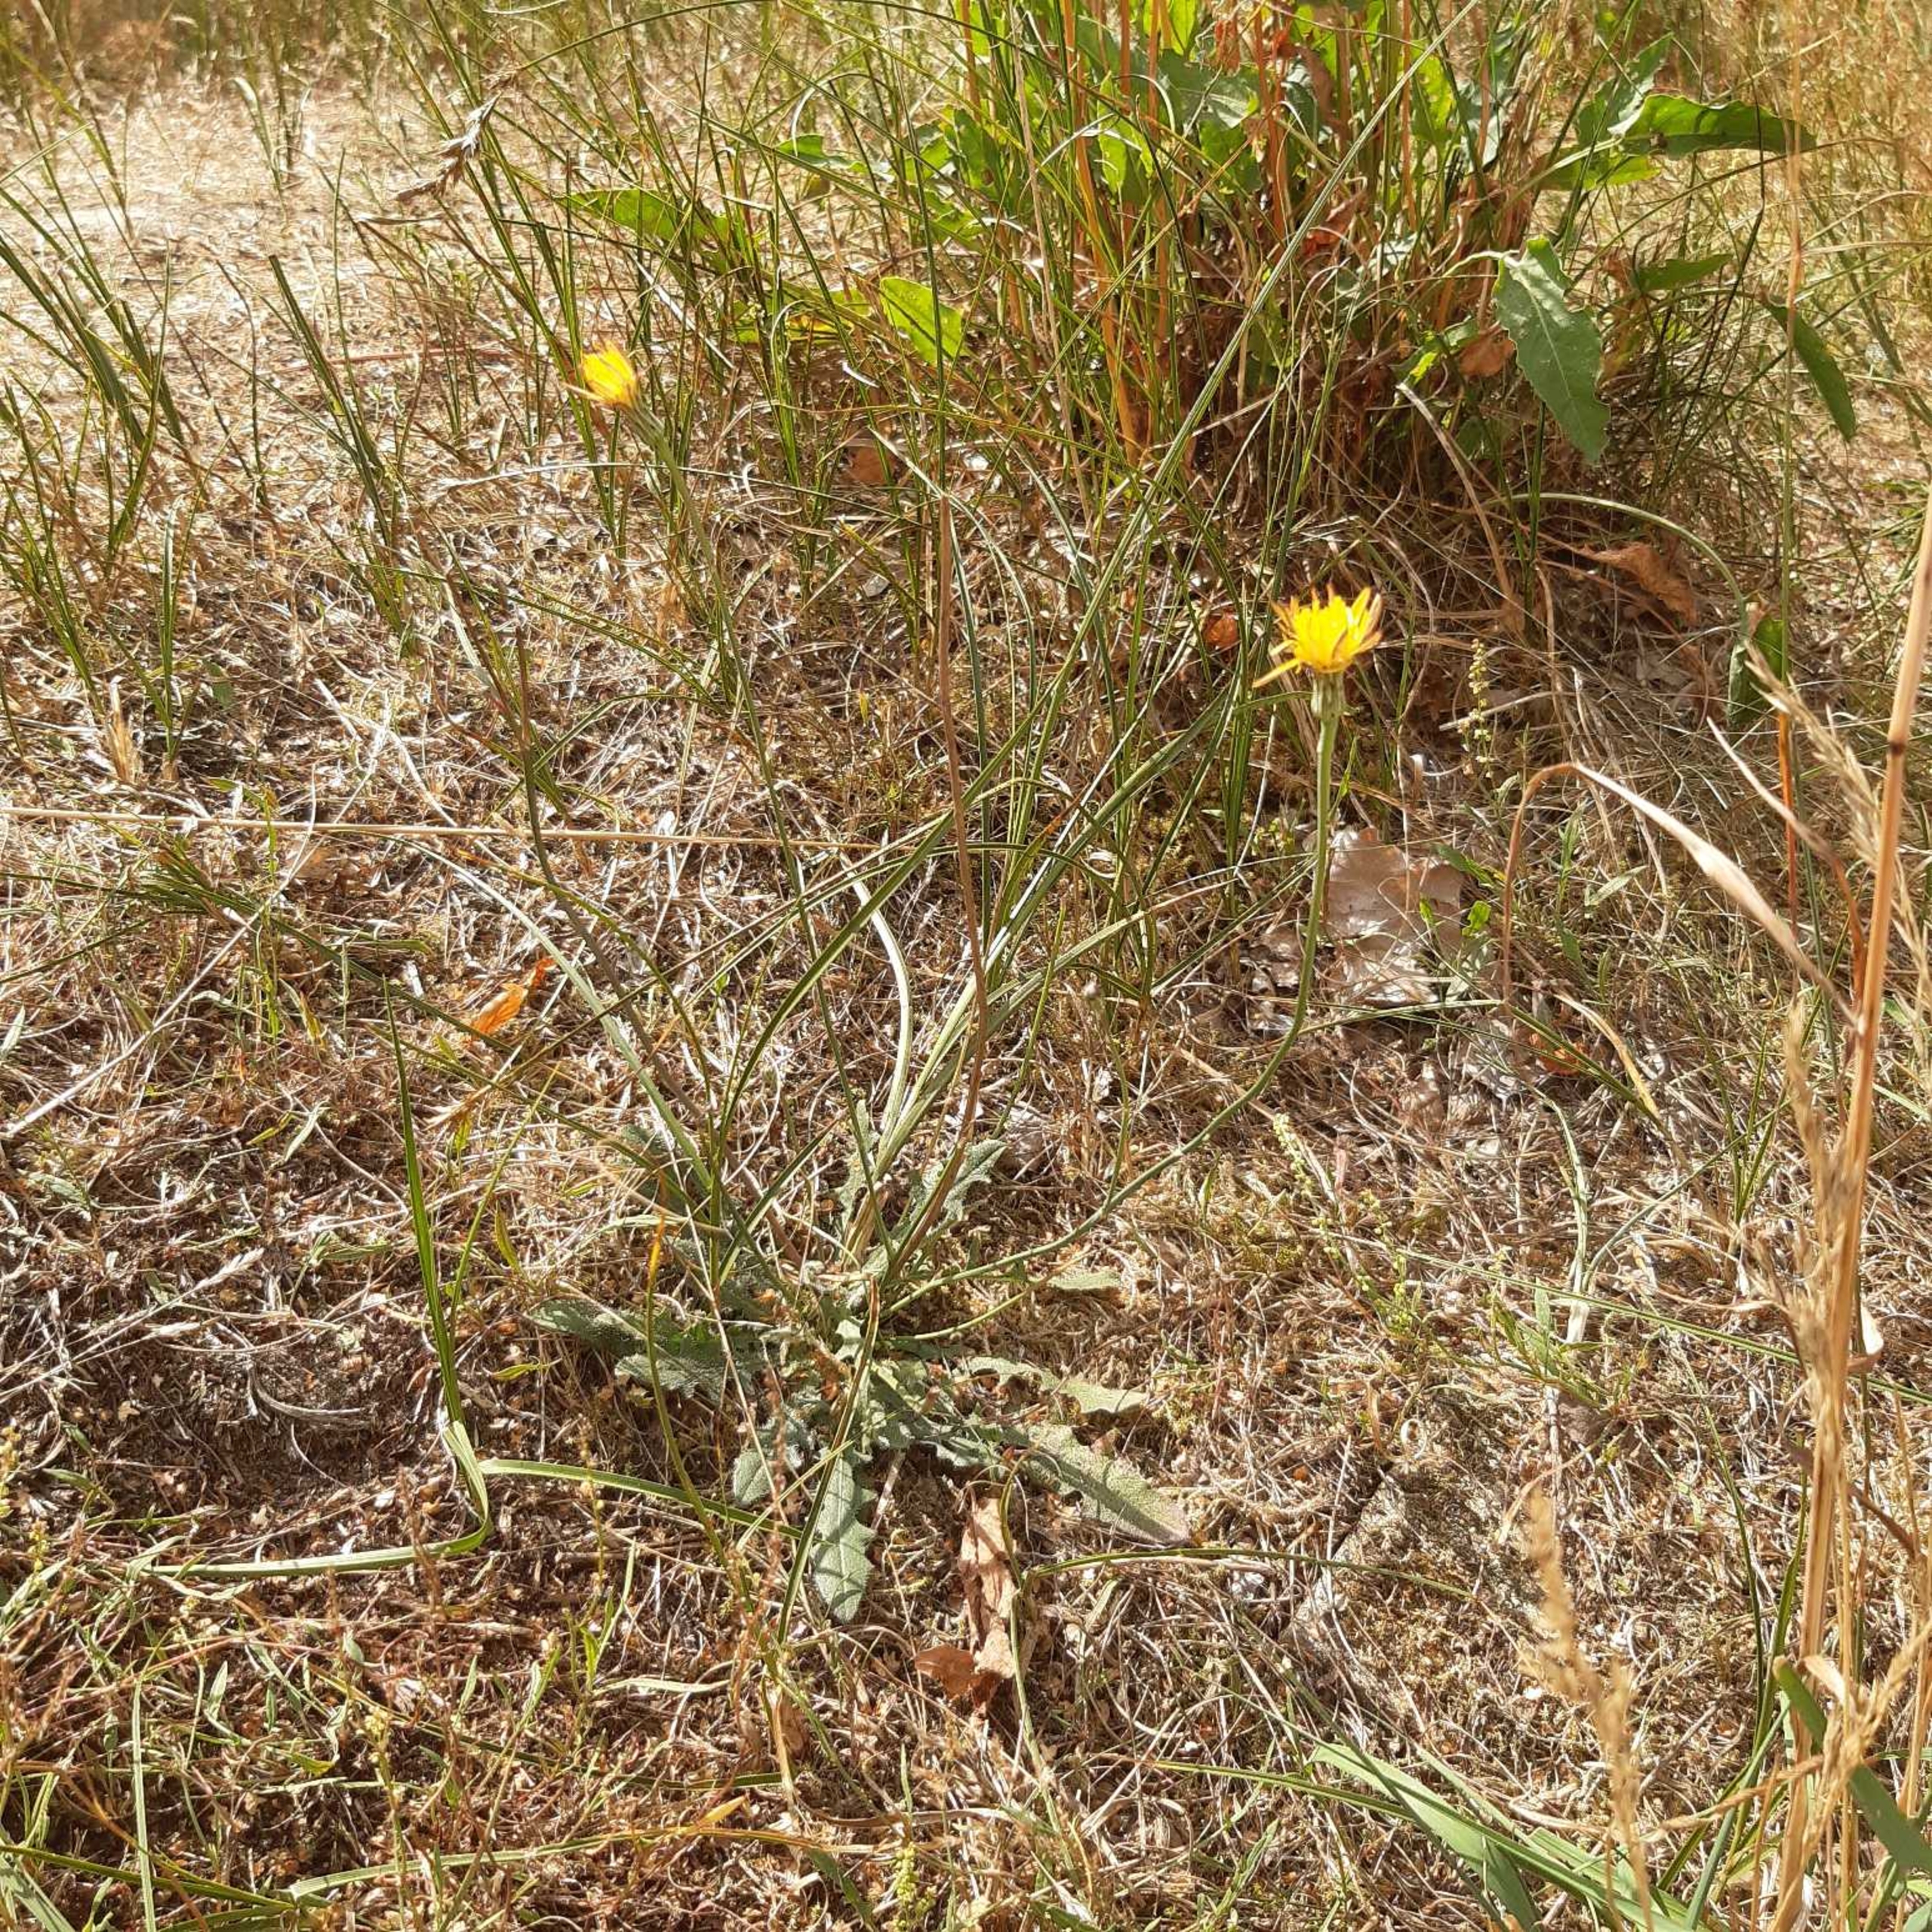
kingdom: Plantae
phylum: Tracheophyta
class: Magnoliopsida
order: Asterales
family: Asteraceae
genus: Hypochaeris
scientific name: Hypochaeris radicata
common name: Almindelig kongepen
